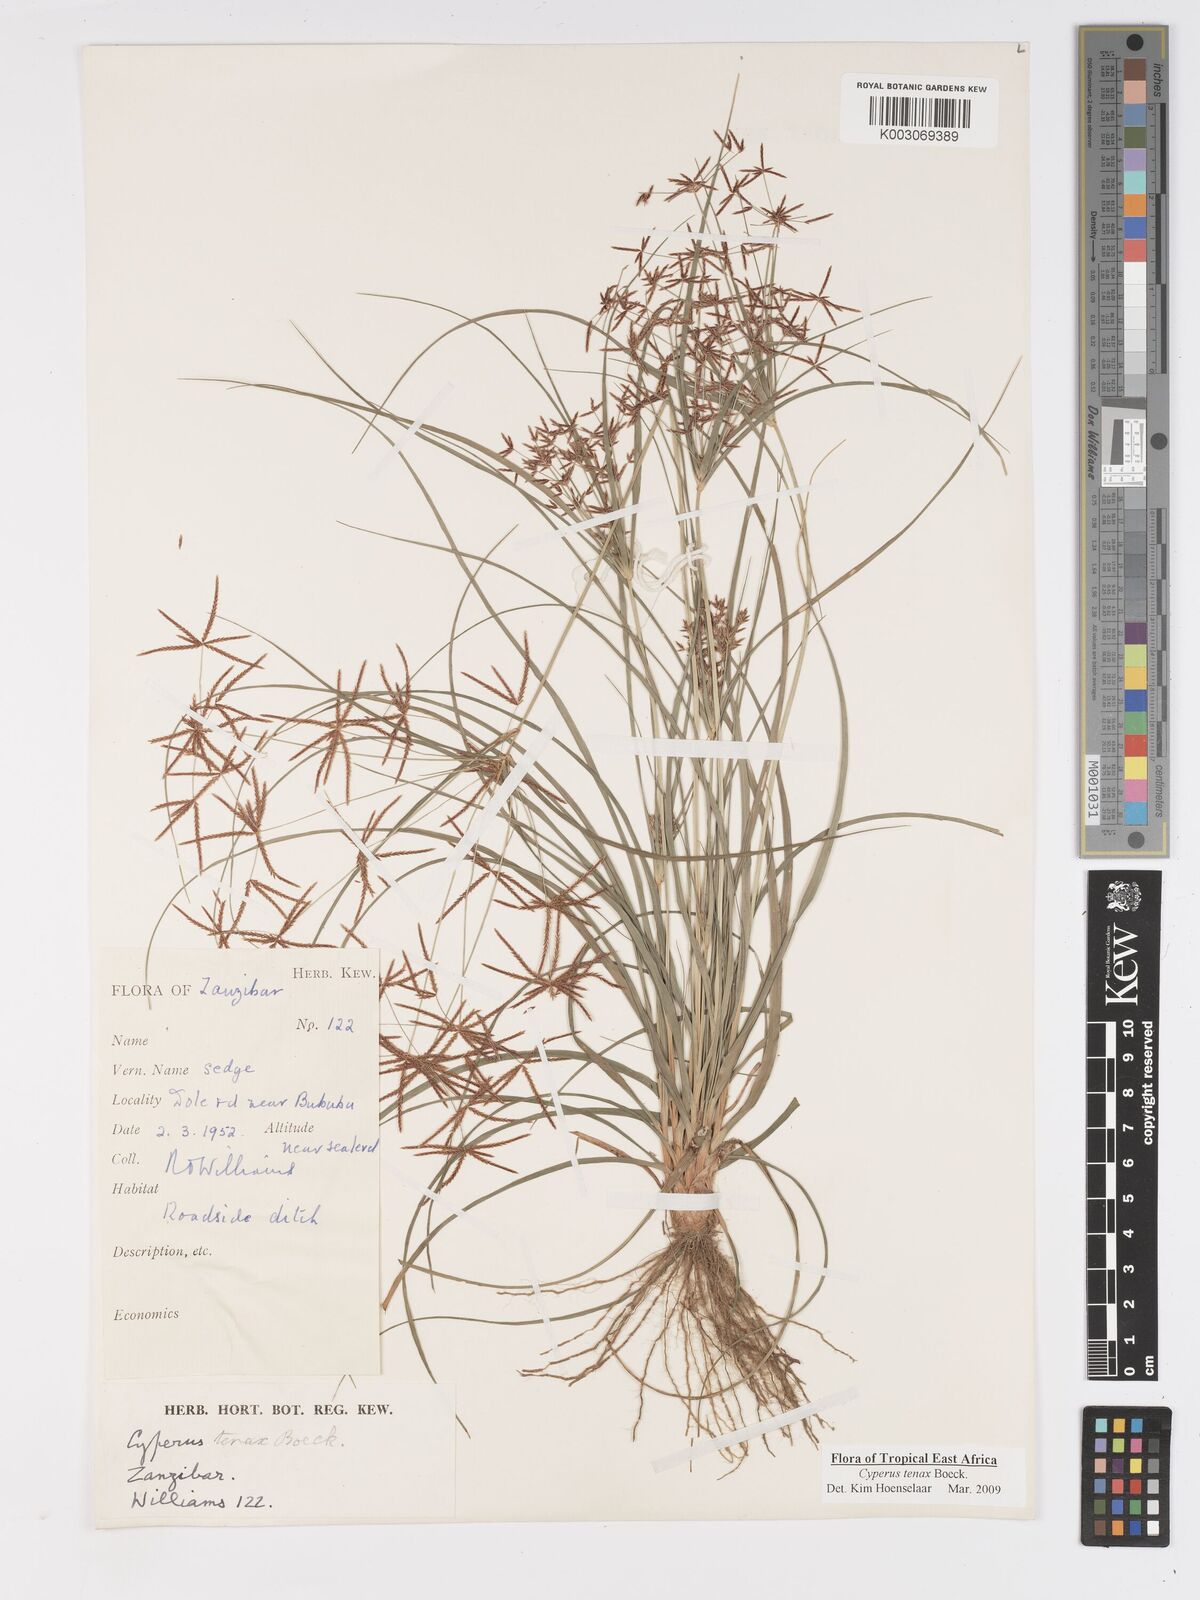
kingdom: Plantae
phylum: Tracheophyta
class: Liliopsida
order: Poales
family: Cyperaceae
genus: Cyperus
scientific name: Cyperus tenax
